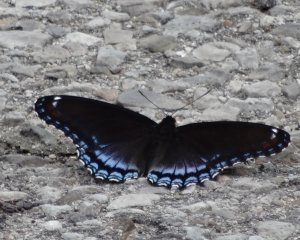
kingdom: Animalia
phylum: Arthropoda
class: Insecta
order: Lepidoptera
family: Nymphalidae
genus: Limenitis
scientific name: Limenitis astyanax
